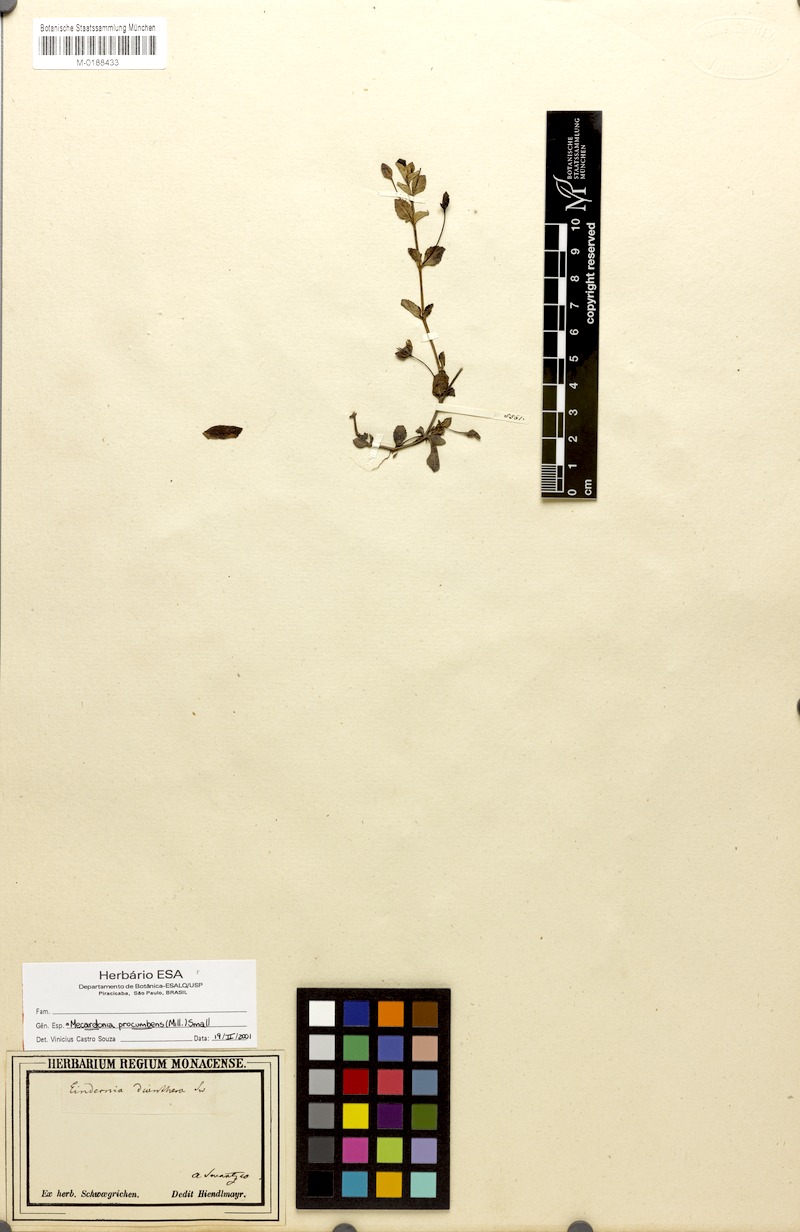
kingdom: Plantae
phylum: Tracheophyta
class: Magnoliopsida
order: Lamiales
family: Plantaginaceae
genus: Mecardonia
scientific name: Mecardonia procumbens
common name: Baby jump-up
